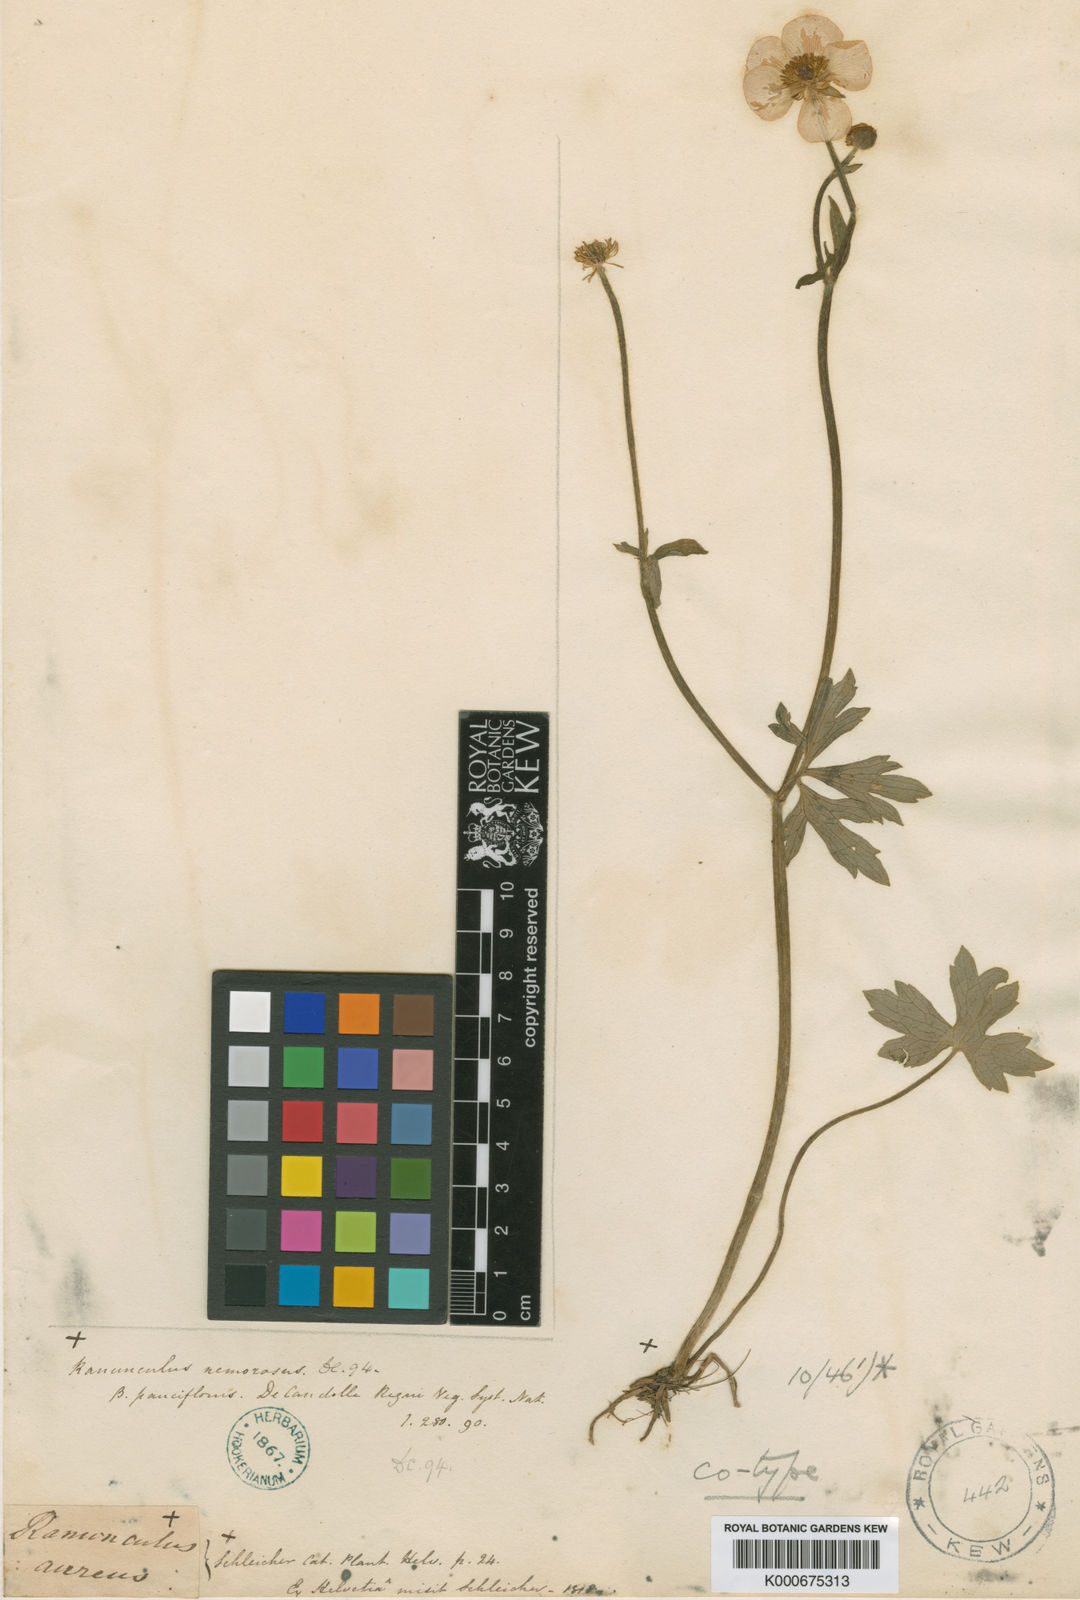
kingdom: Plantae
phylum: Tracheophyta
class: Magnoliopsida
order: Ranunculales
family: Ranunculaceae
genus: Ranunculus
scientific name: Ranunculus polyanthemos
